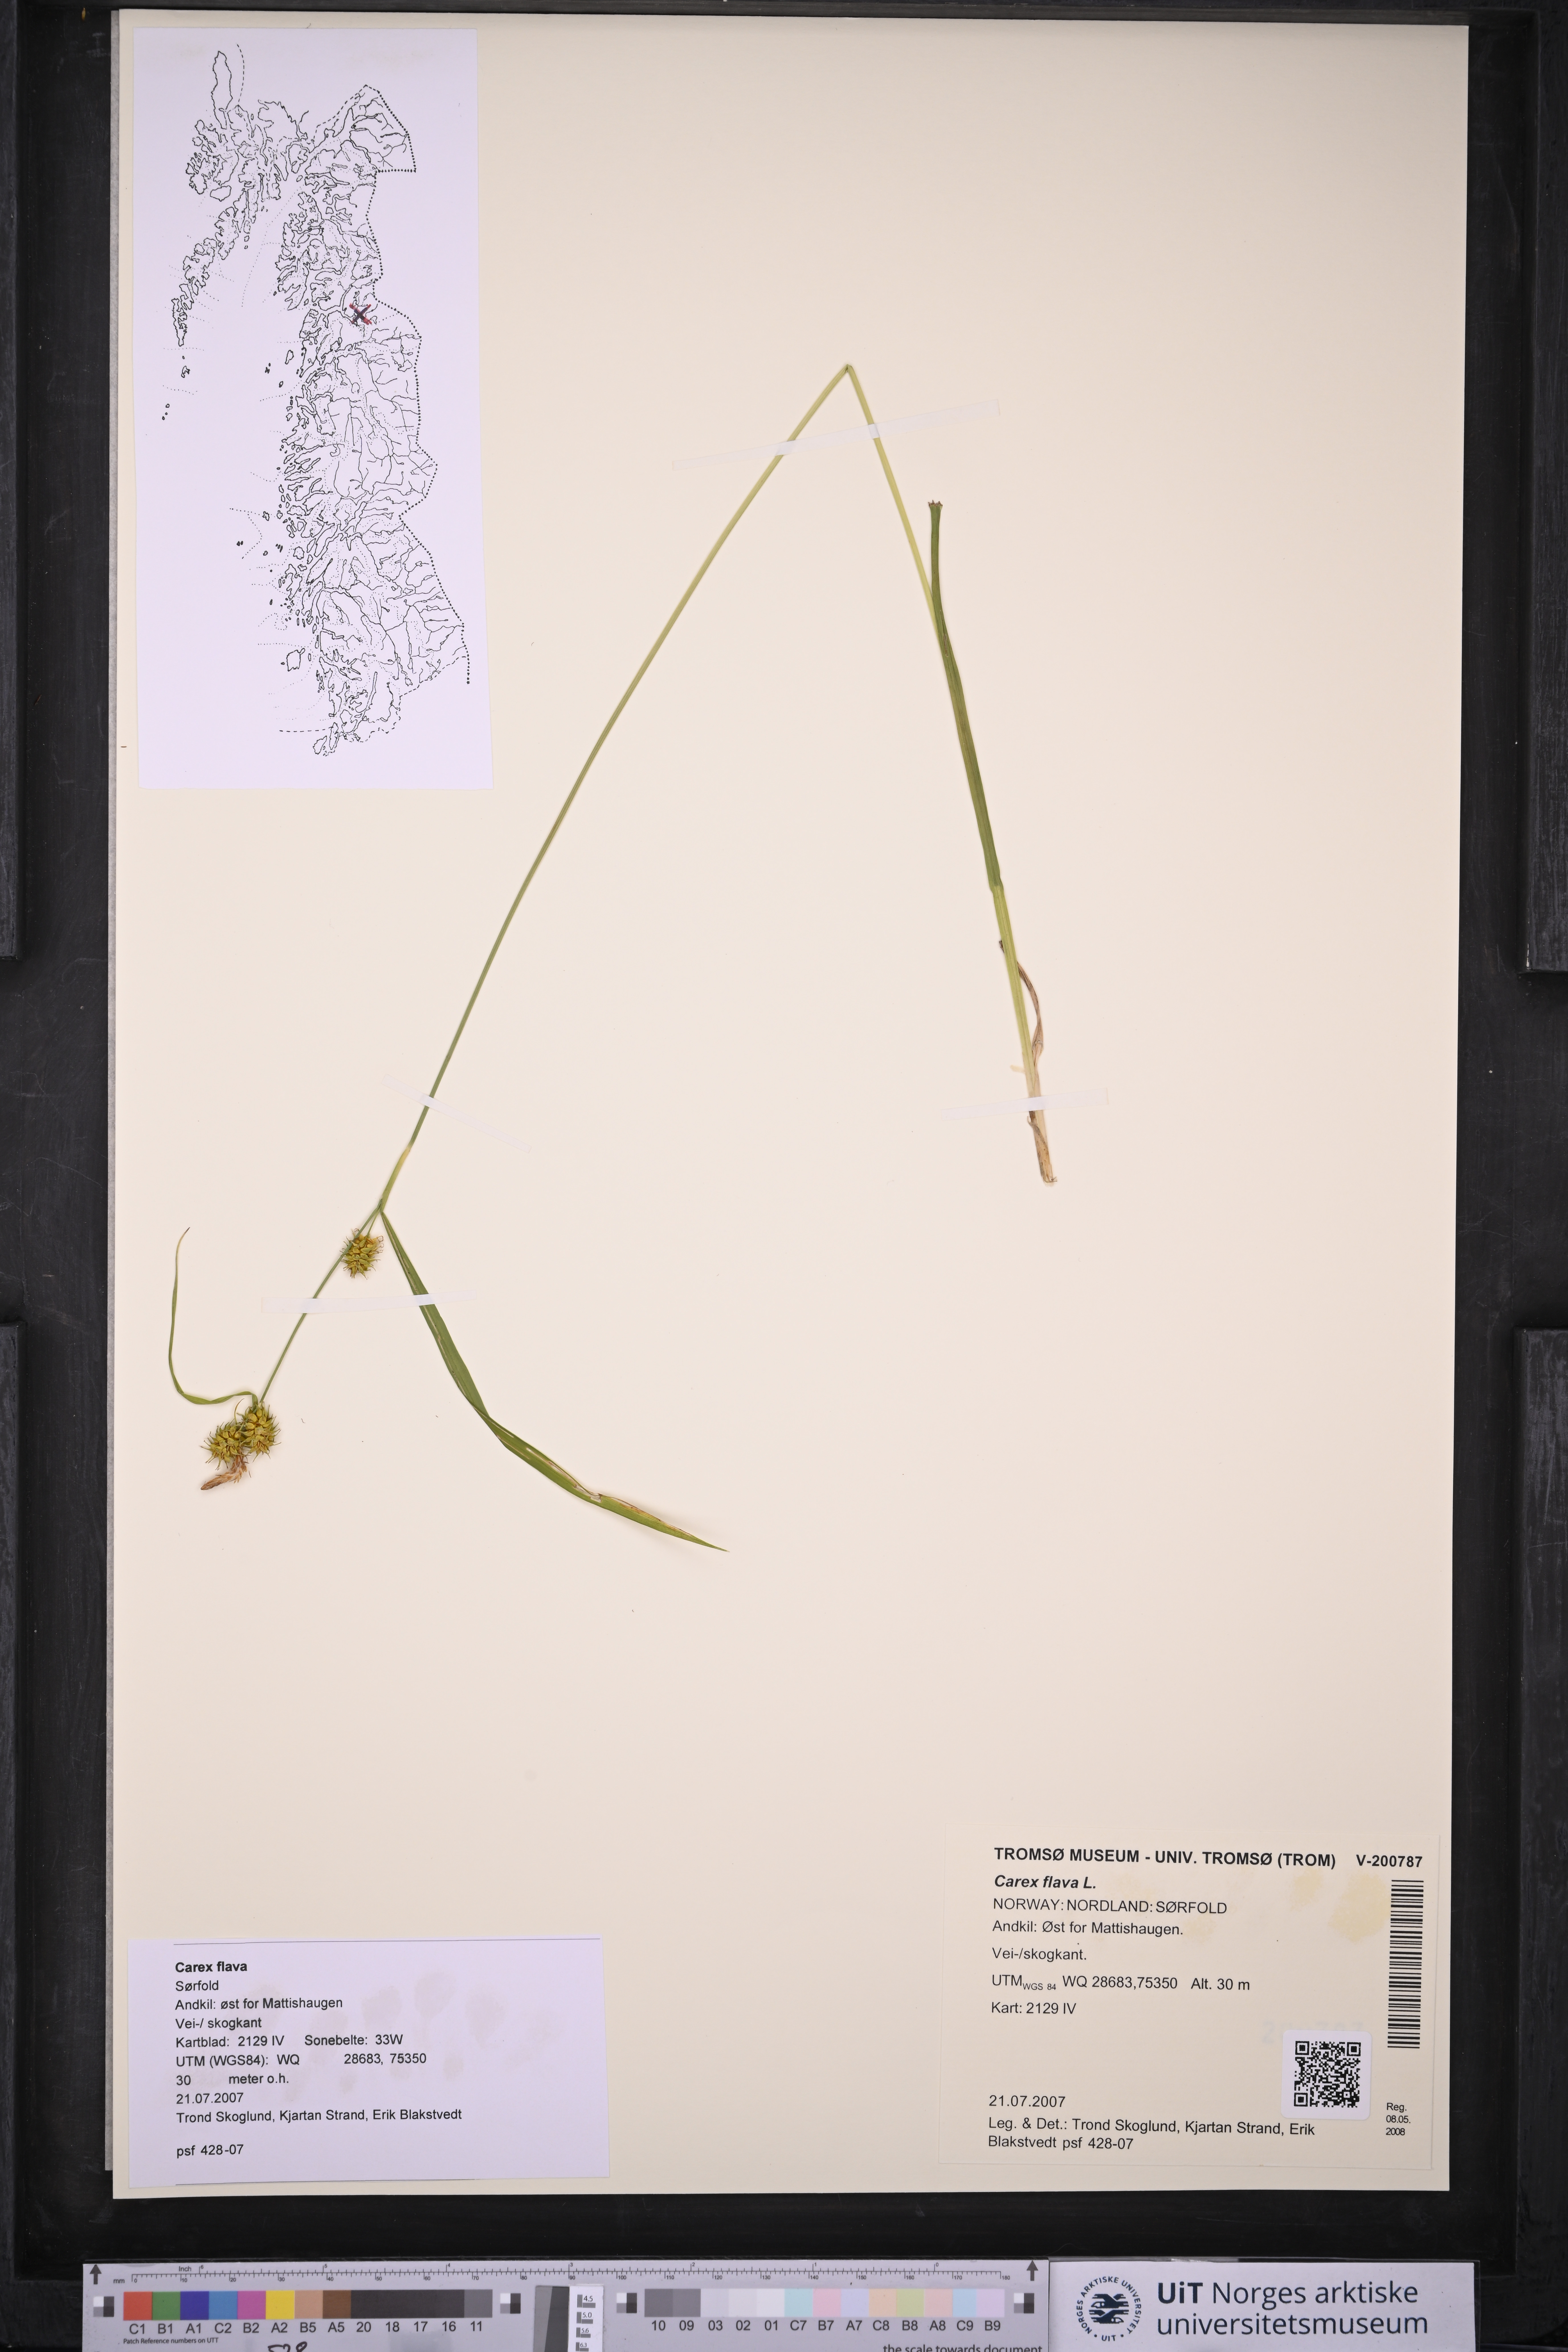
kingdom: Plantae
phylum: Tracheophyta
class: Liliopsida
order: Poales
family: Cyperaceae
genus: Carex
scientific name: Carex flava
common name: Large yellow-sedge
